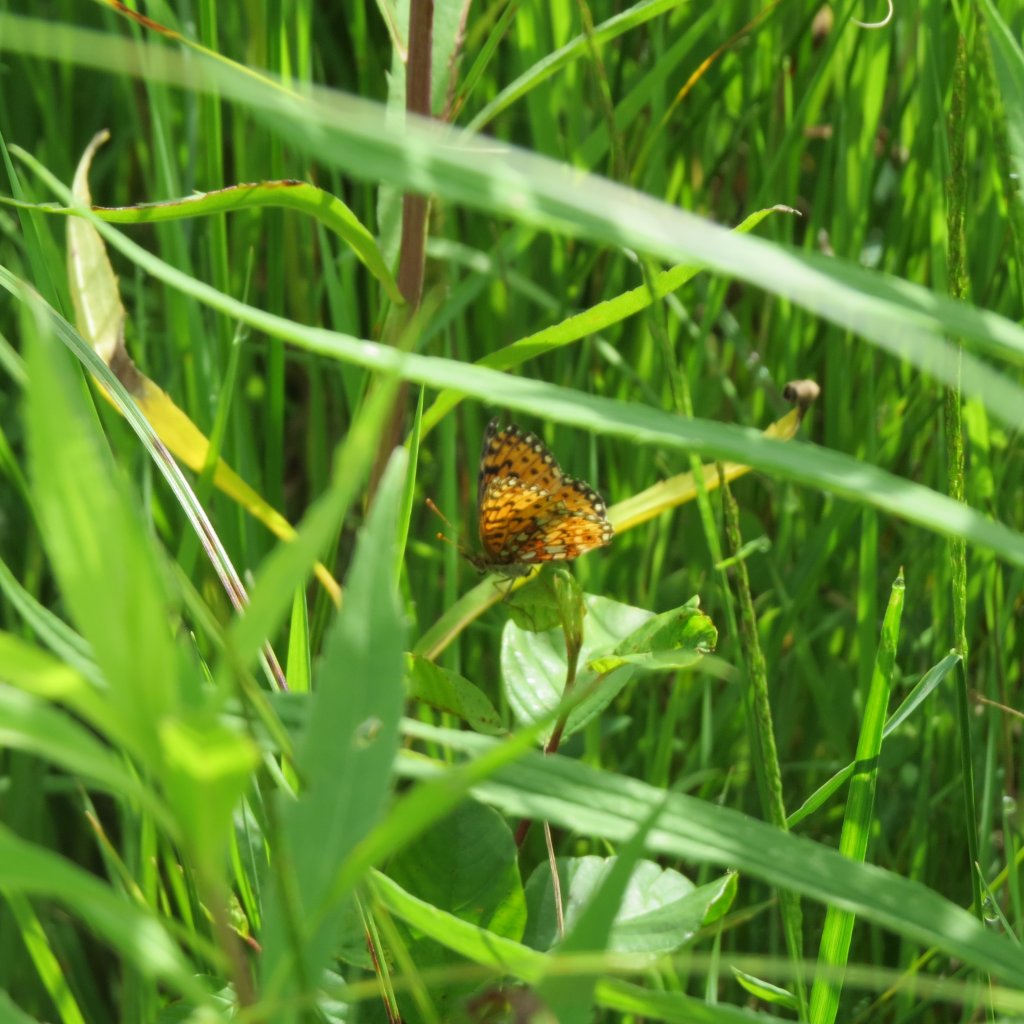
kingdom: Animalia
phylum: Arthropoda
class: Insecta
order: Lepidoptera
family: Nymphalidae
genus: Boloria
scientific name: Boloria selene
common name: Silver-bordered Fritillary
